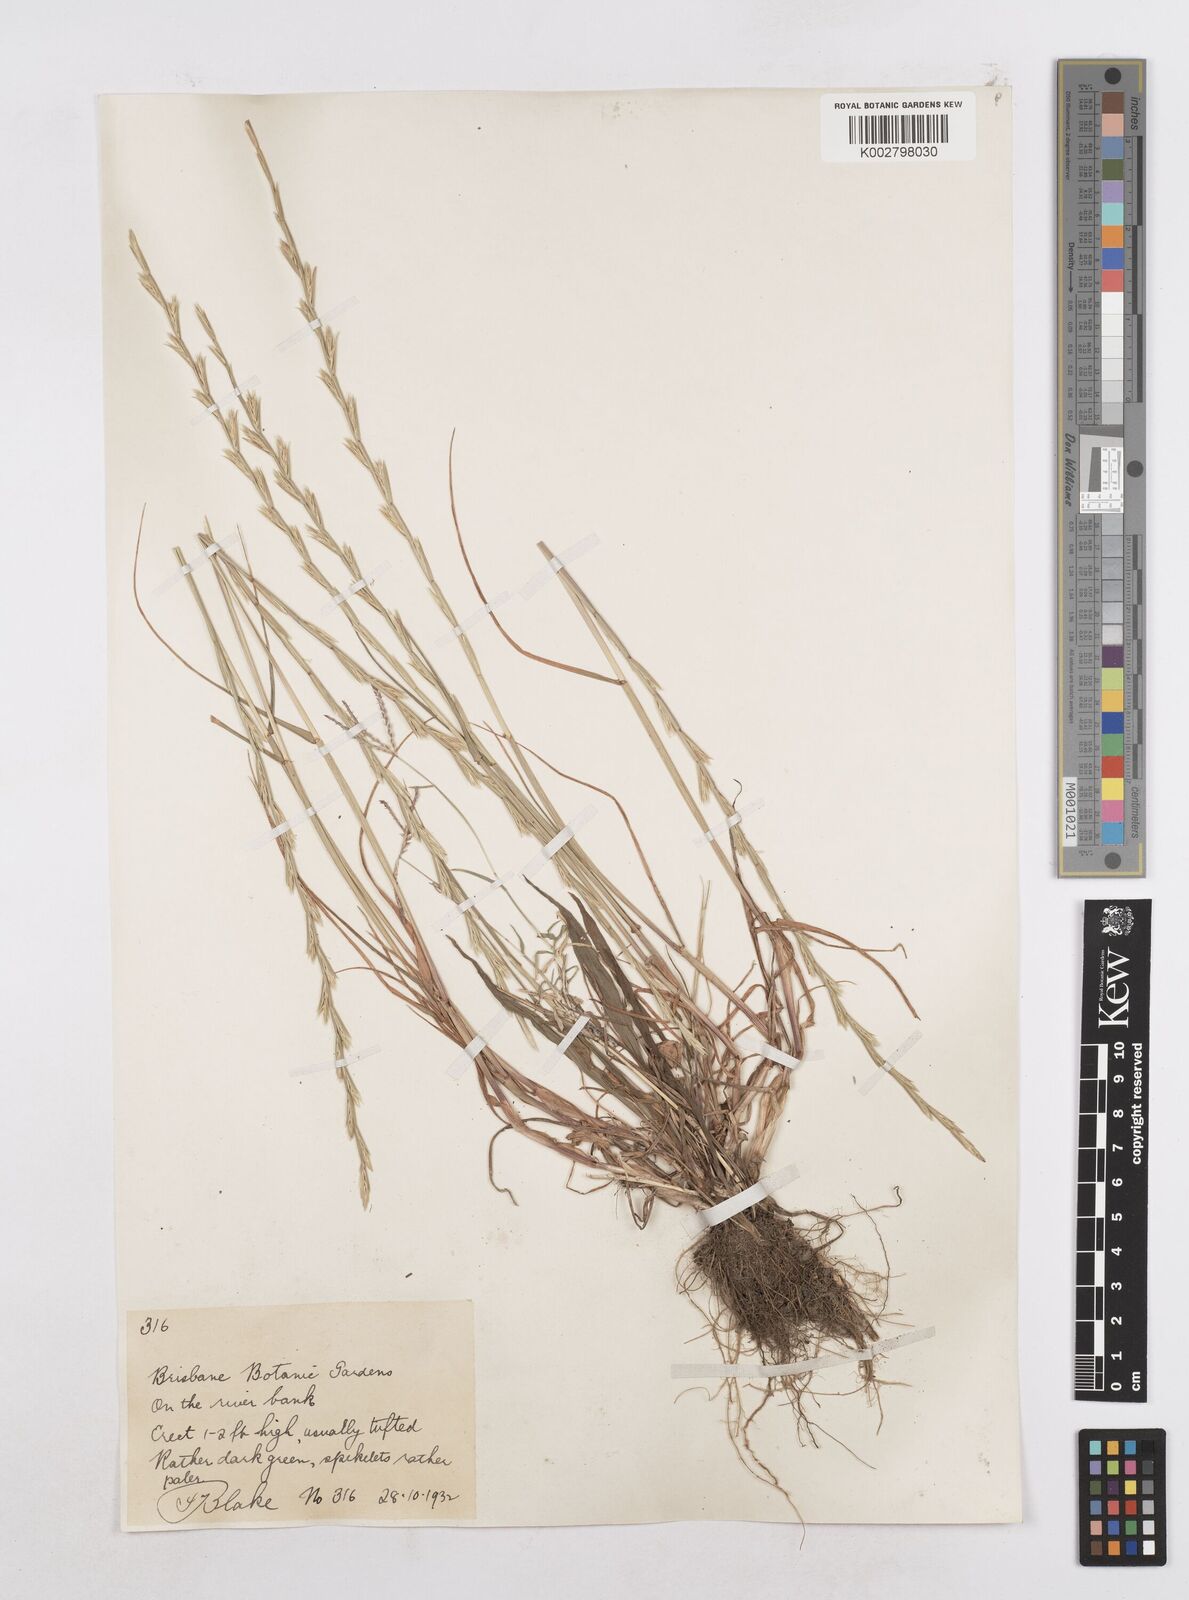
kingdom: Plantae
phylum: Tracheophyta
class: Liliopsida
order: Poales
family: Poaceae
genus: Lolium
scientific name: Lolium perenne
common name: Perennial ryegrass
